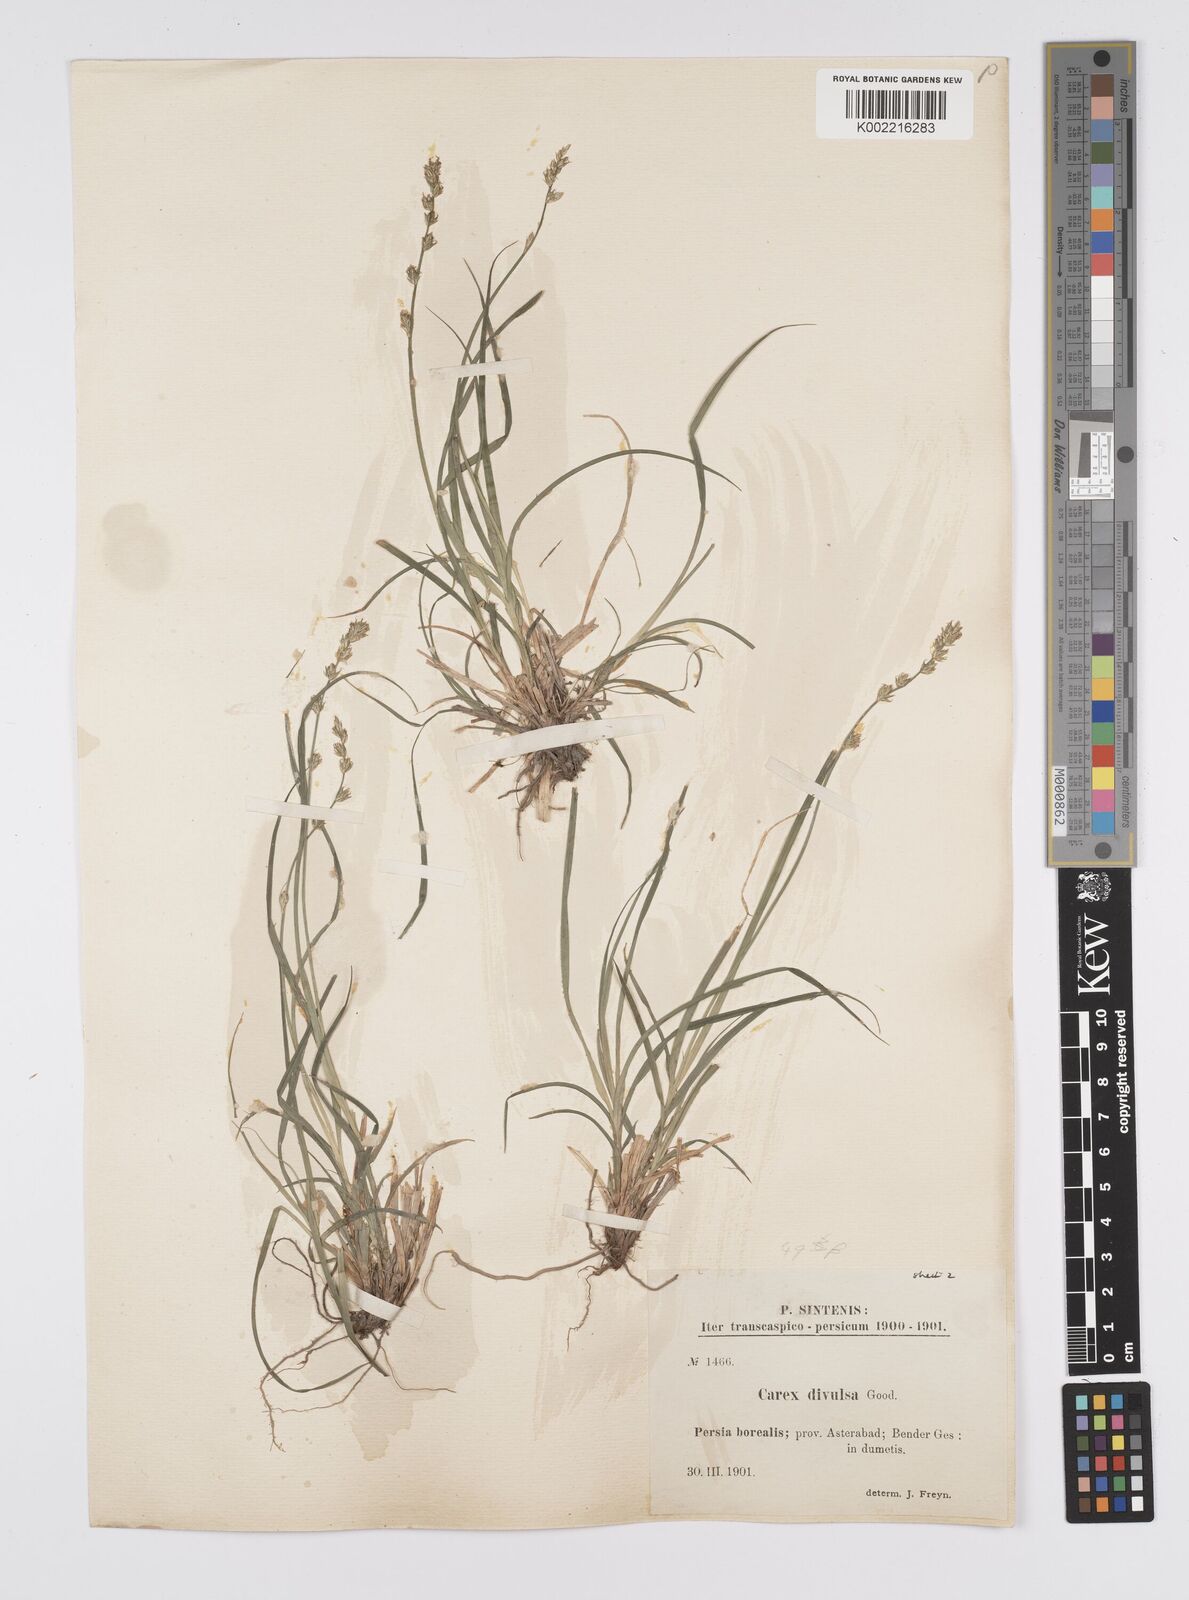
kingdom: Plantae
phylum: Tracheophyta
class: Liliopsida
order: Poales
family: Cyperaceae
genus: Carex
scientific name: Carex divulsa
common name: Grassland sedge
